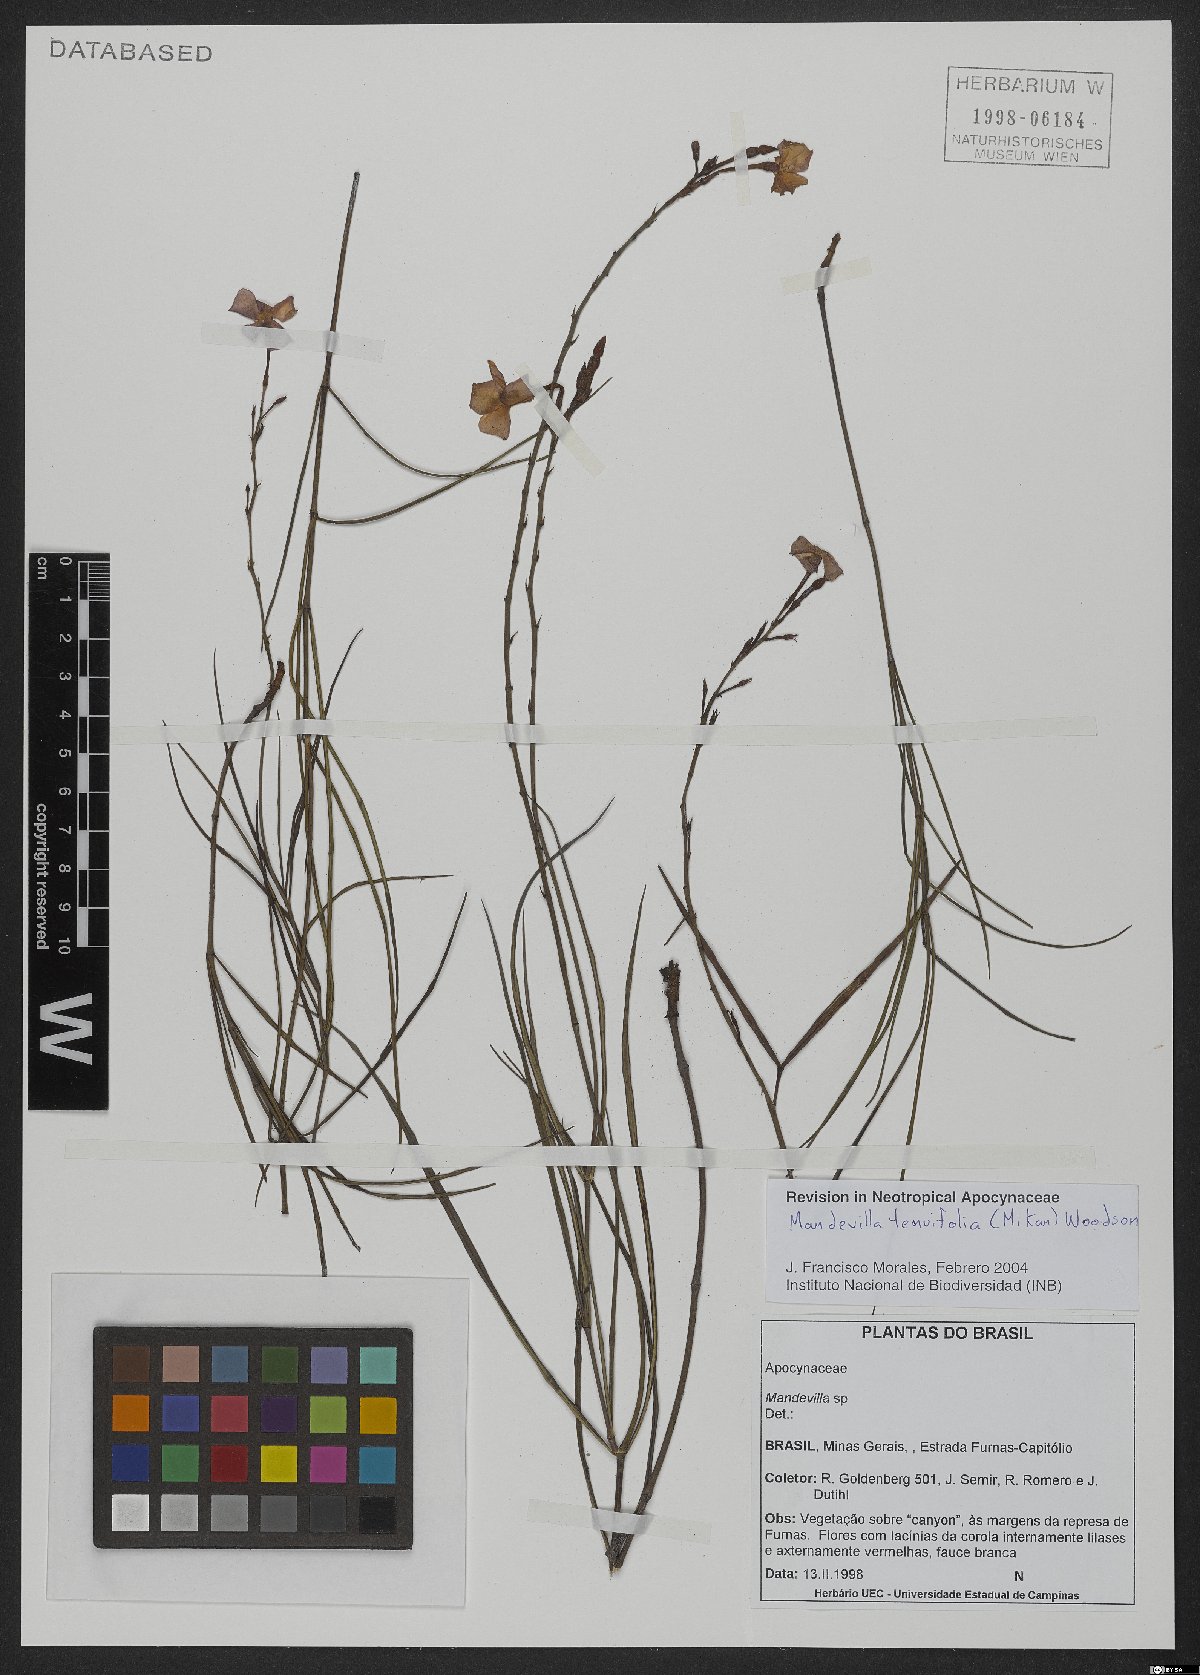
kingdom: Plantae
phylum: Tracheophyta
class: Magnoliopsida
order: Gentianales
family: Apocynaceae
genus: Mandevilla
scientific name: Mandevilla tenuifolia
